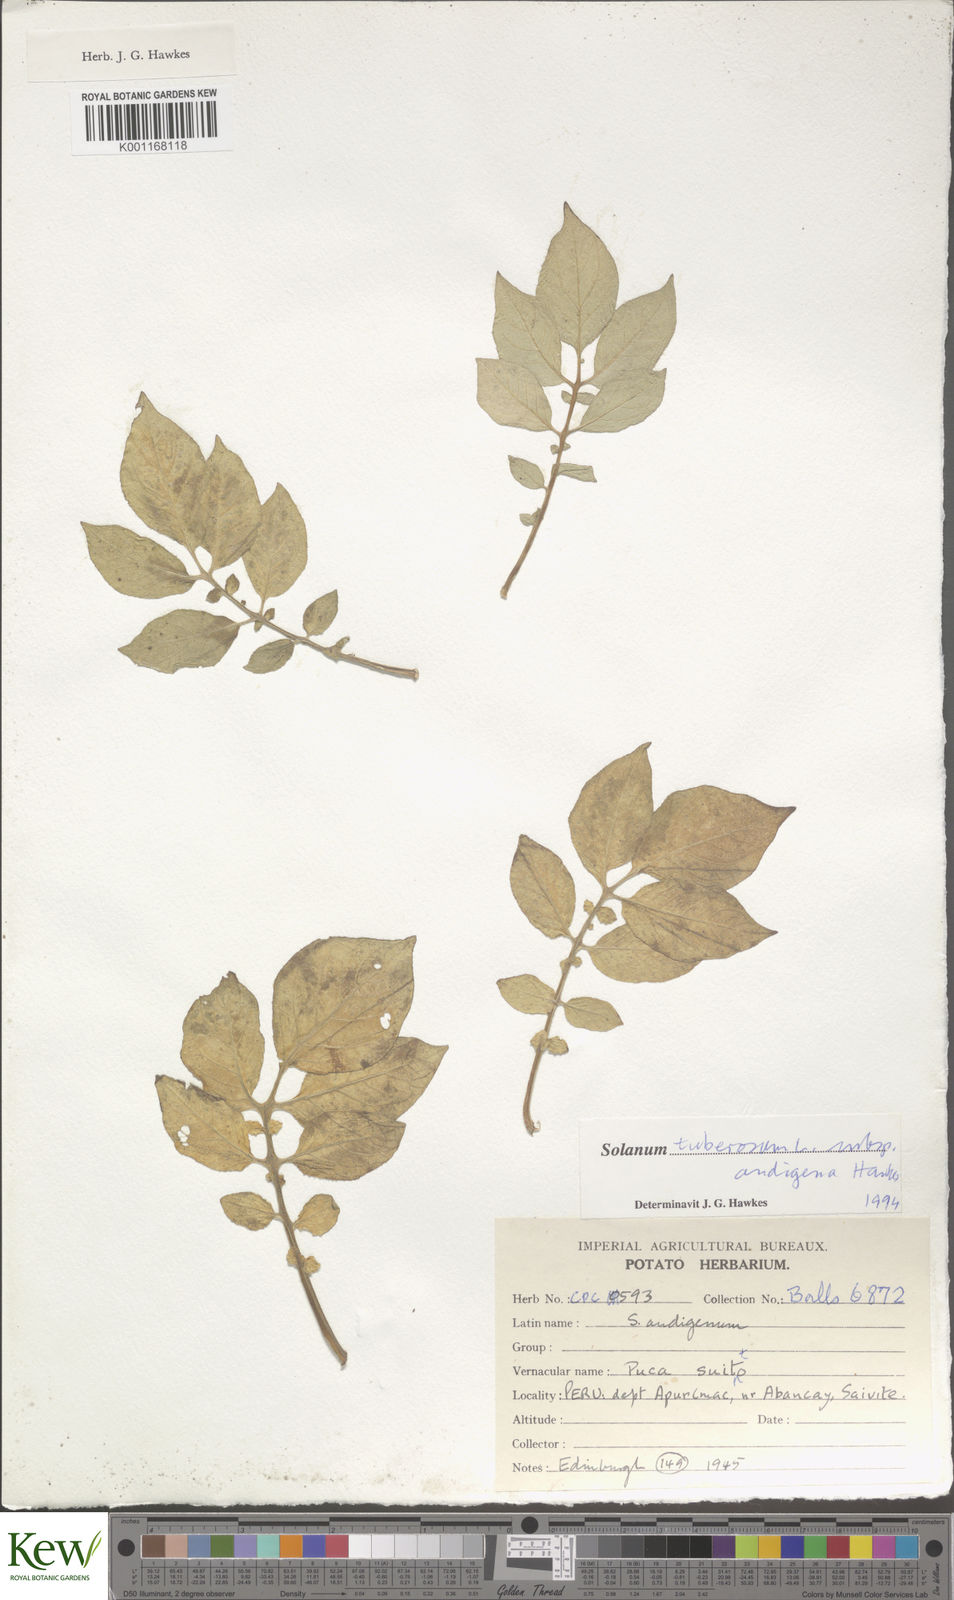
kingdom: Plantae
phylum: Tracheophyta
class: Magnoliopsida
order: Solanales
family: Solanaceae
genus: Solanum
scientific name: Solanum tuberosum
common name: Potato
